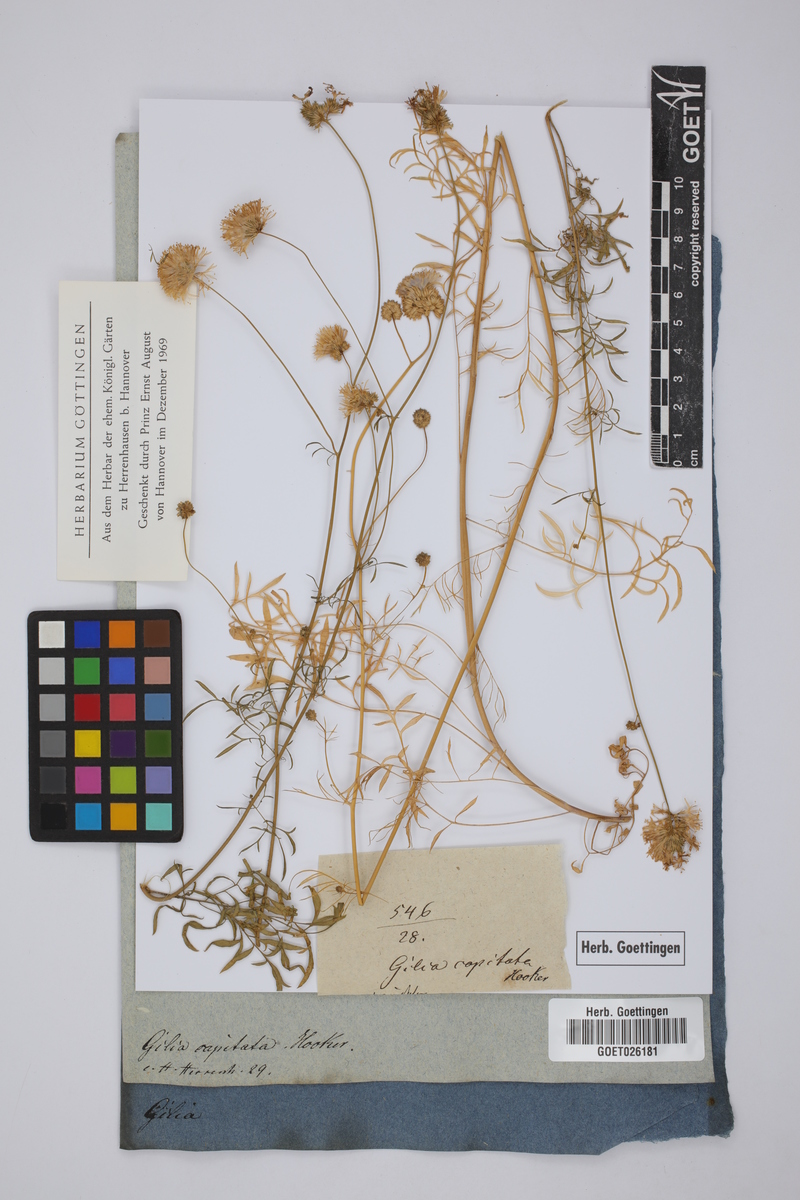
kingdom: Plantae
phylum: Tracheophyta
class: Magnoliopsida
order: Ericales
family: Polemoniaceae
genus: Gilia
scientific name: Gilia capitata
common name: Bluehead gilia
